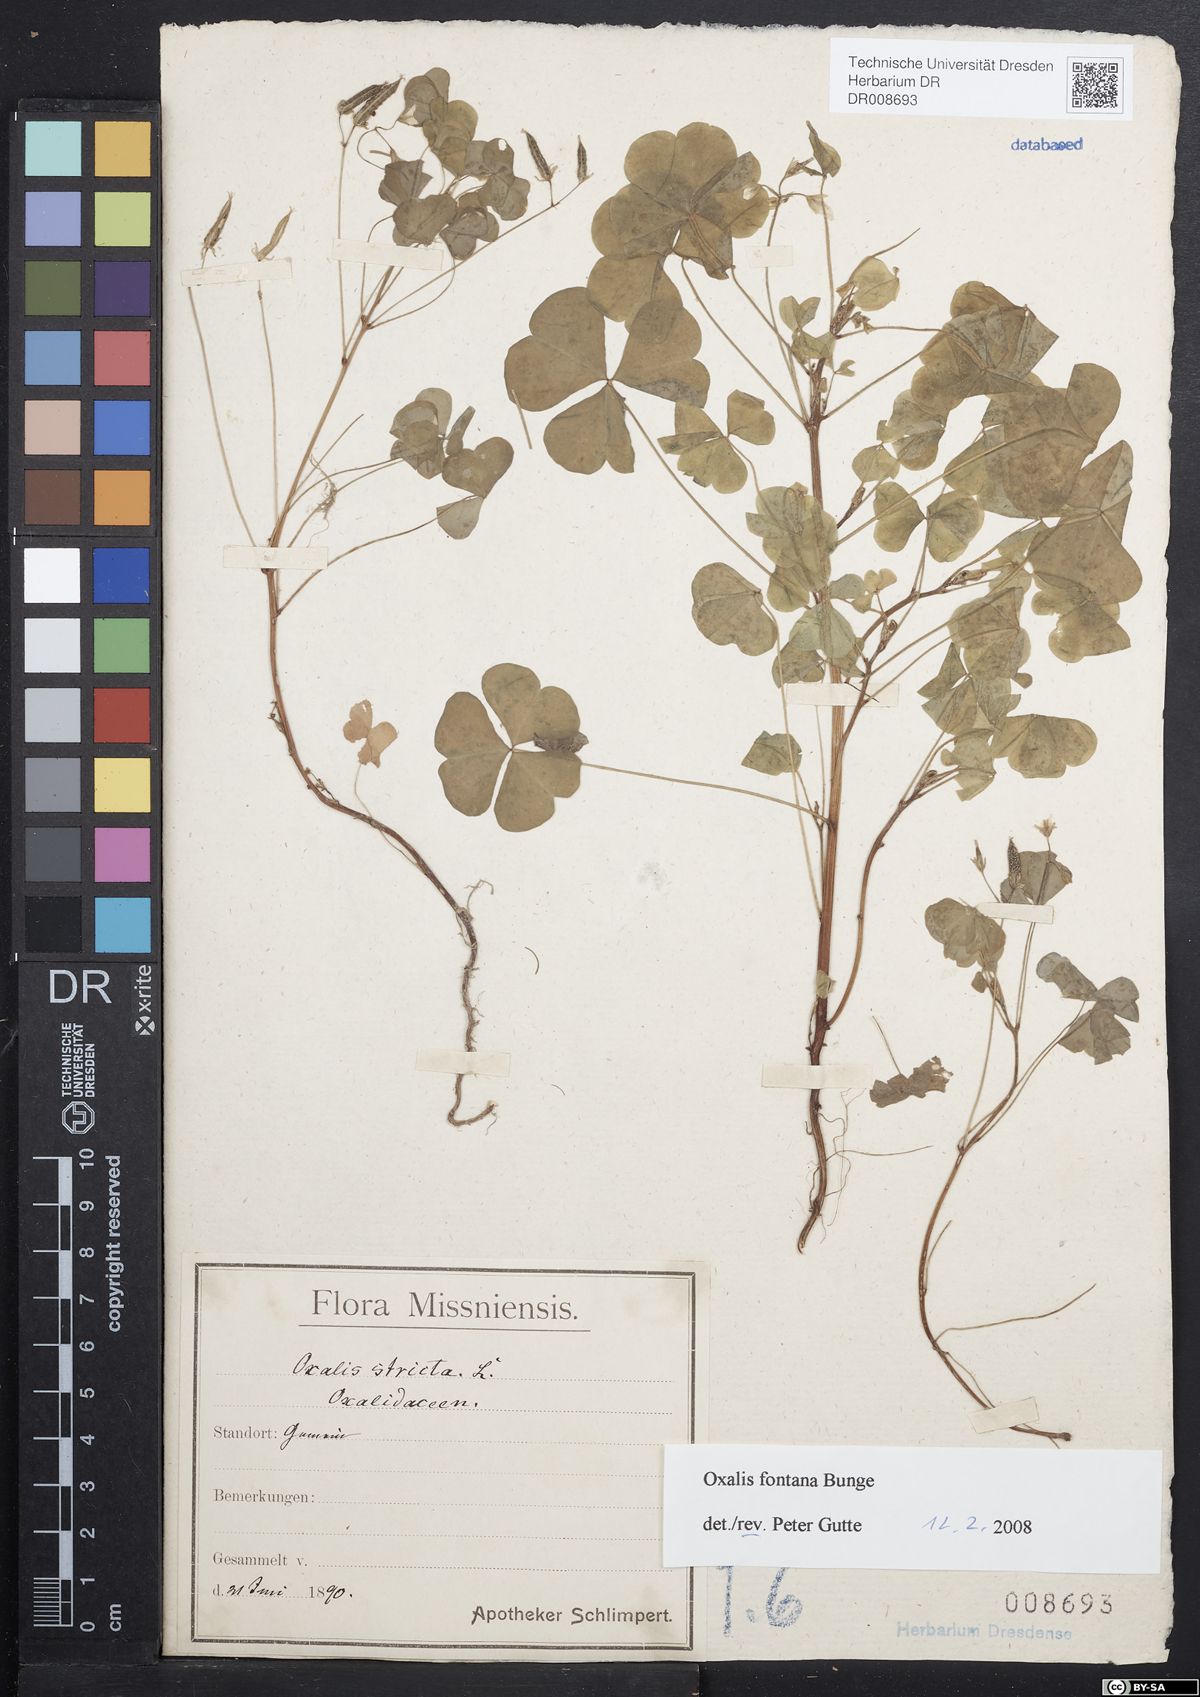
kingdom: Plantae
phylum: Tracheophyta
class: Magnoliopsida
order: Oxalidales
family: Oxalidaceae
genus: Oxalis
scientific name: Oxalis stricta
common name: Upright yellow-sorrel
